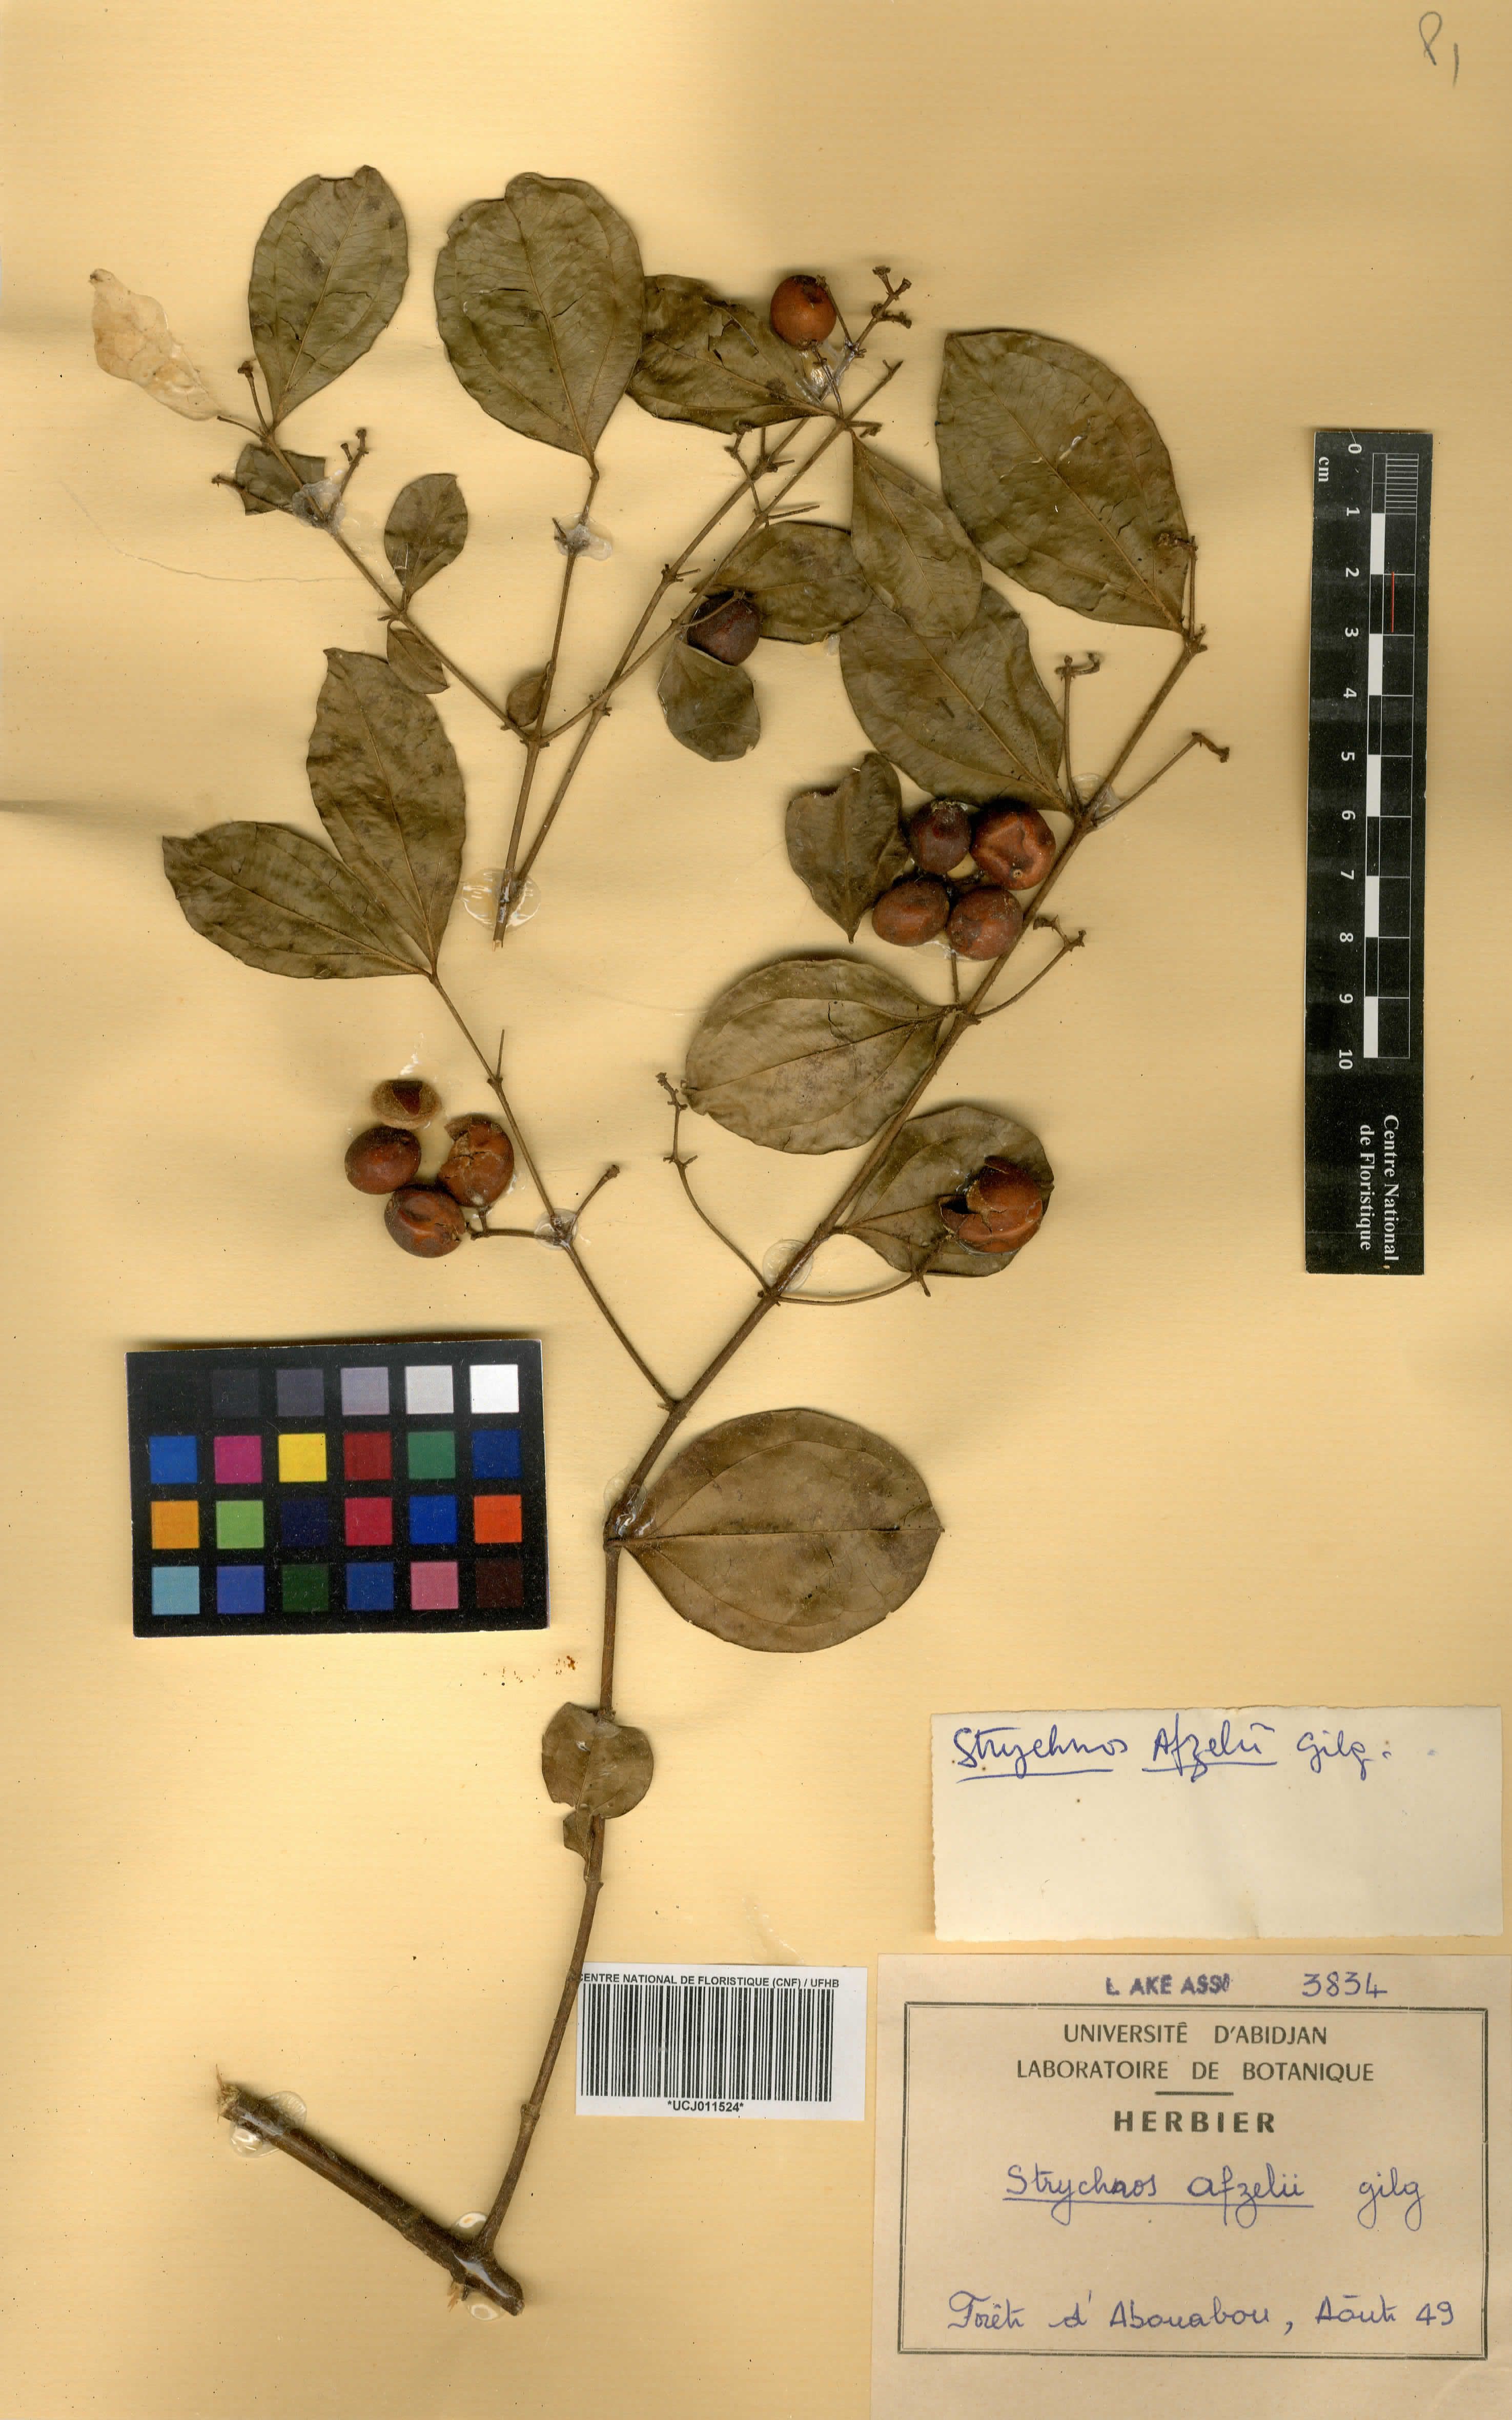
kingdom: Plantae
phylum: Tracheophyta
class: Magnoliopsida
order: Gentianales
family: Loganiaceae
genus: Strychnos
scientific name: Strychnos afzelii
